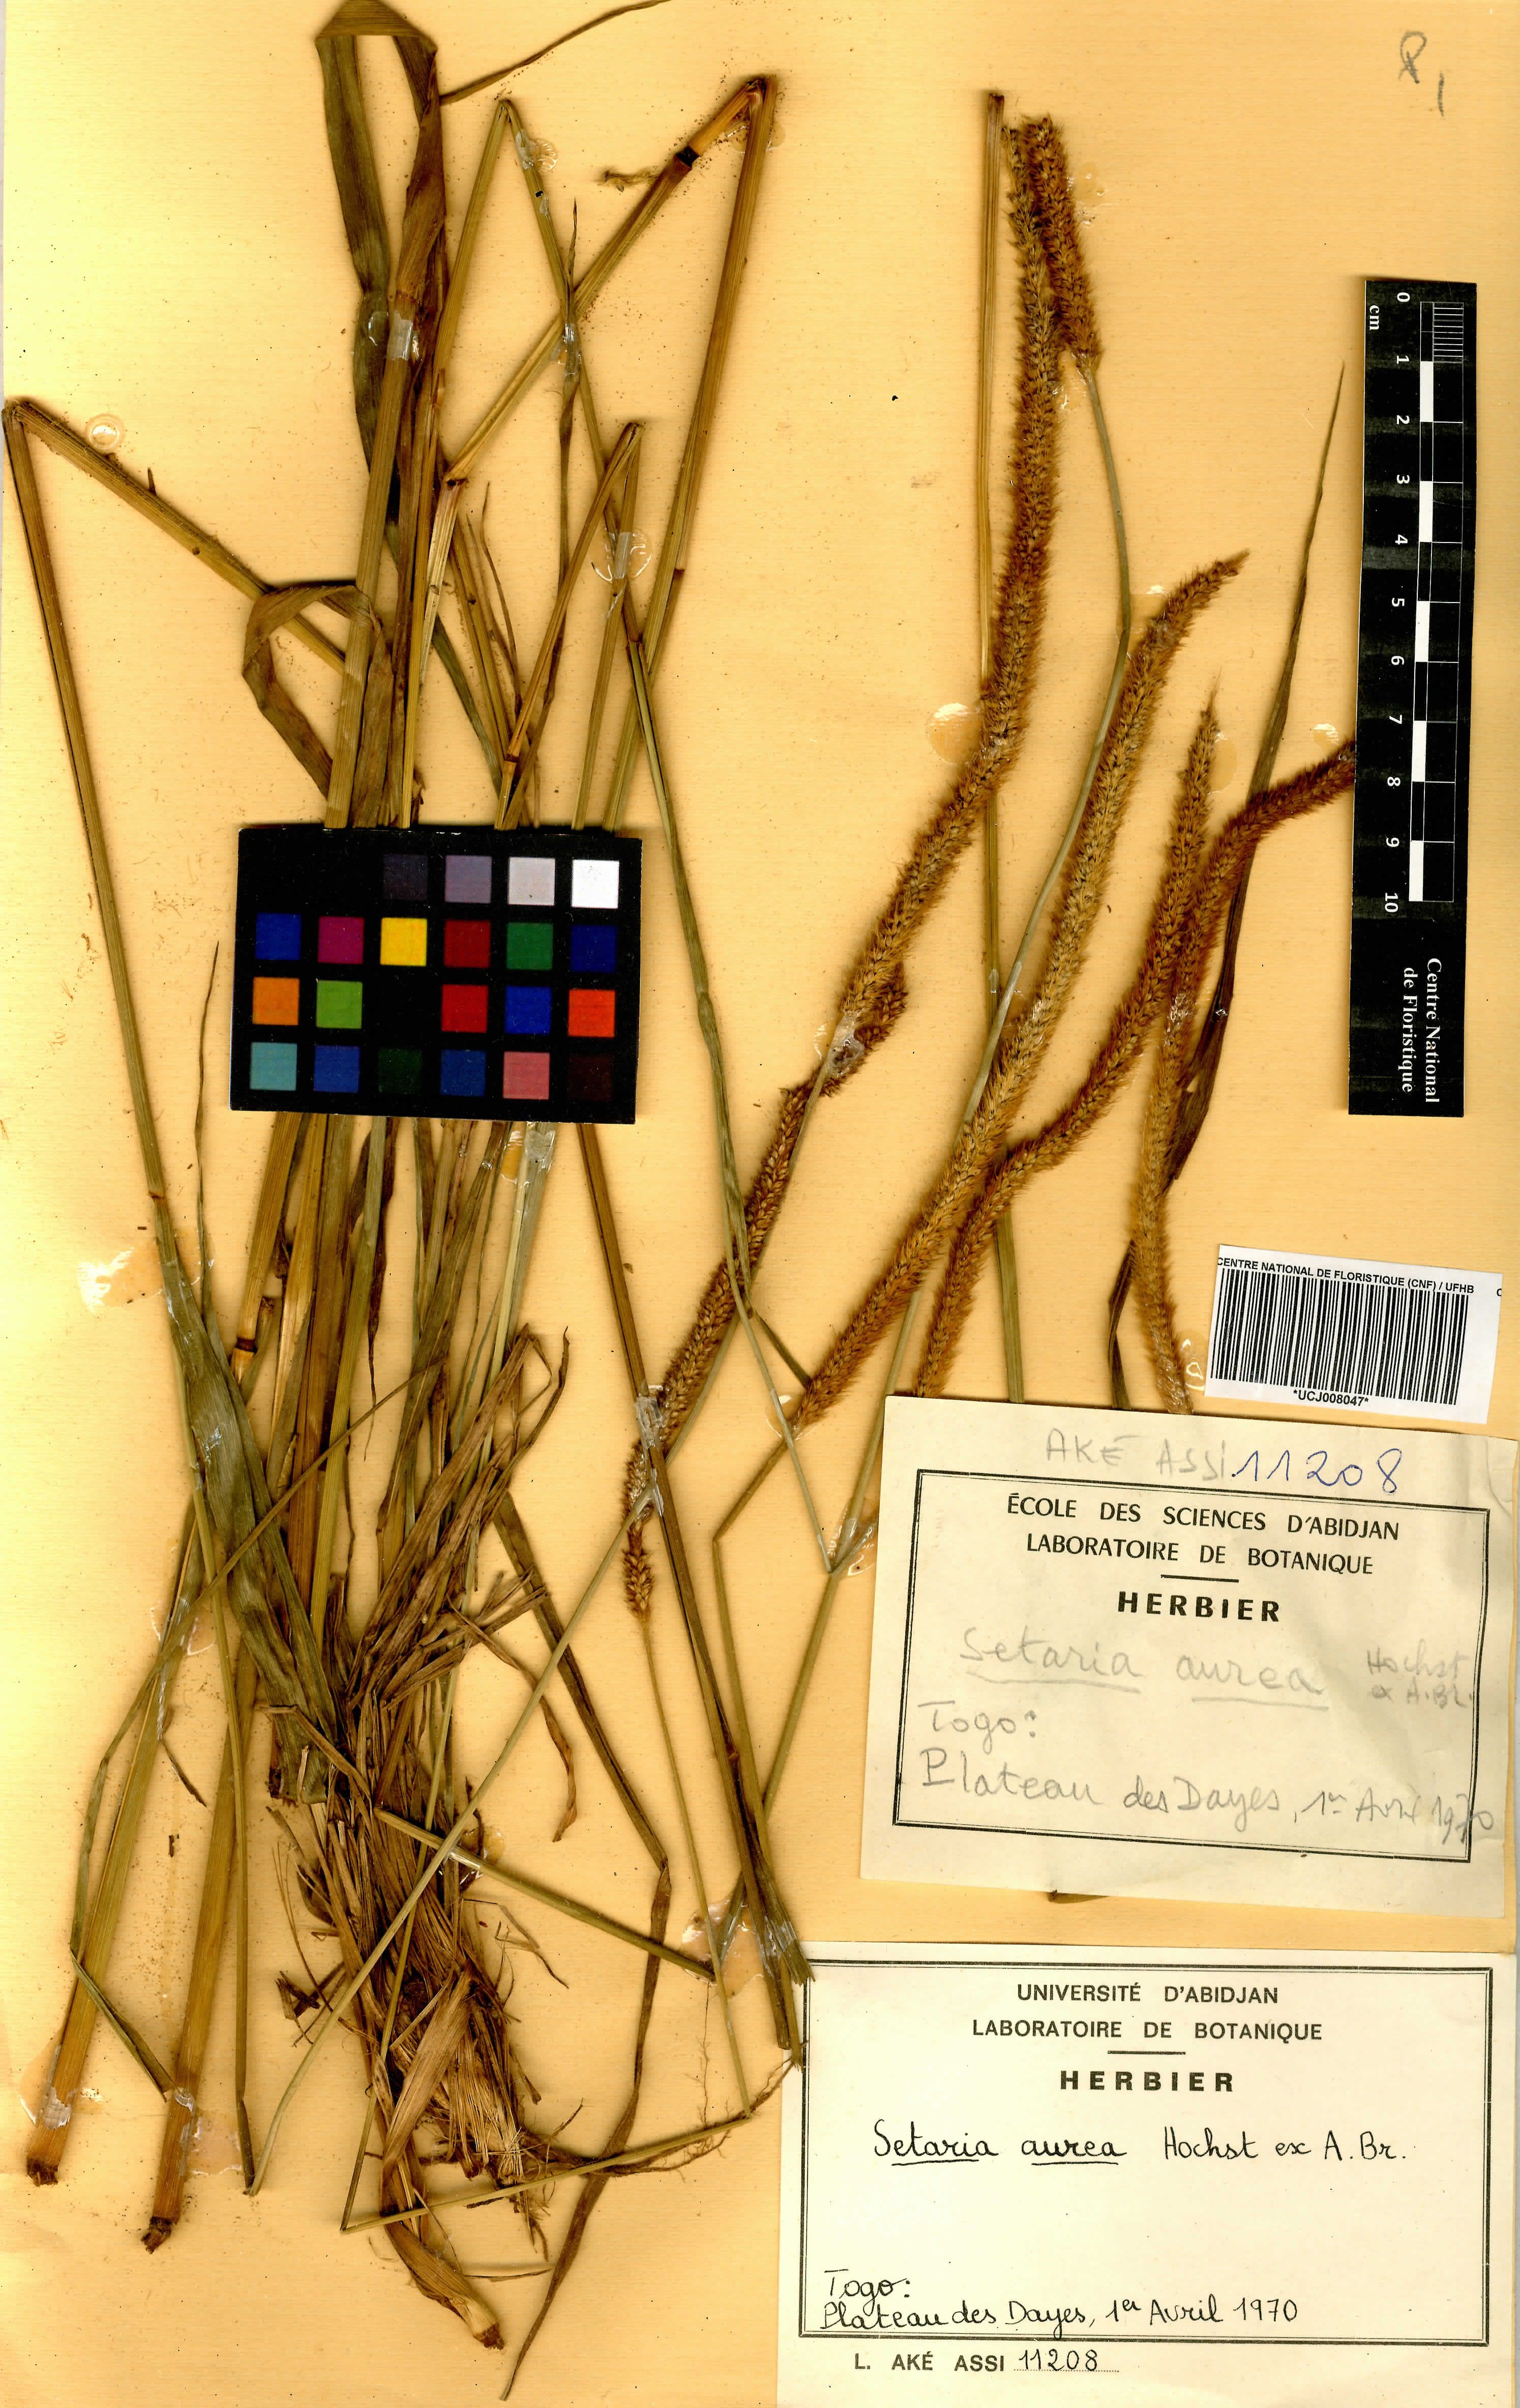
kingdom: Plantae
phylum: Tracheophyta
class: Liliopsida
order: Poales
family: Poaceae
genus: Setaria
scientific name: Setaria barbata
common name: East indian bristlegrass
